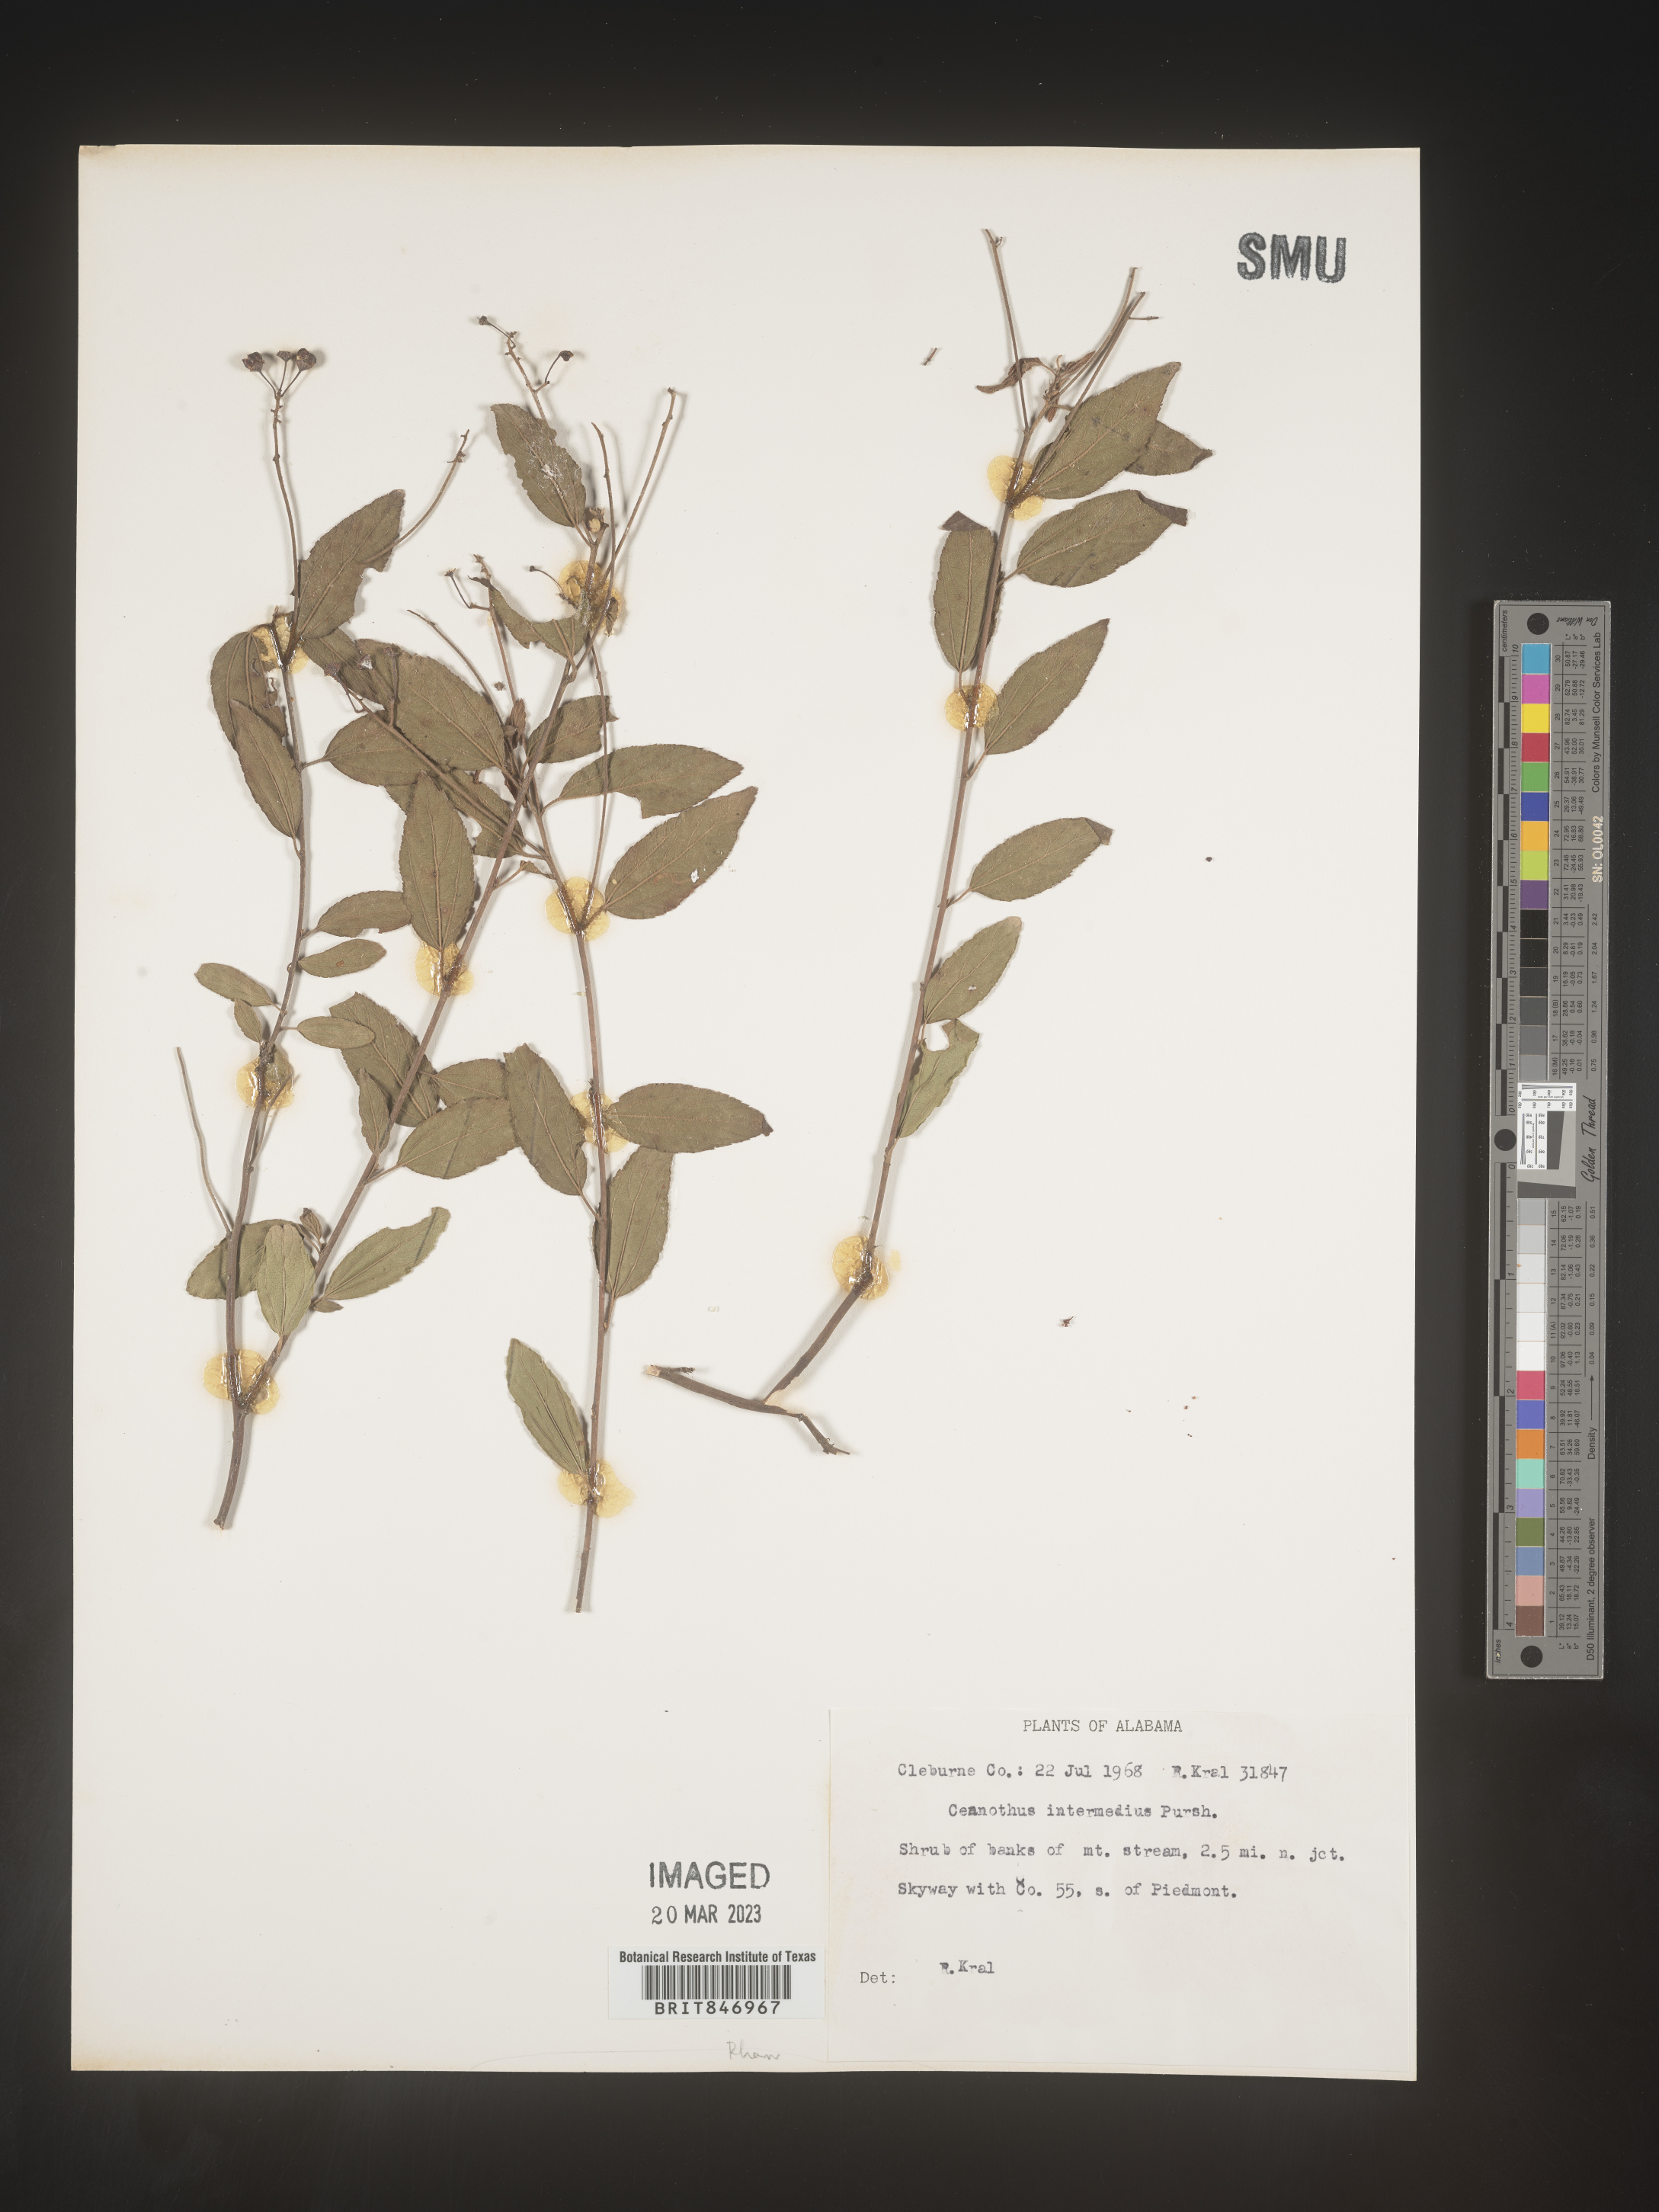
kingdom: Plantae
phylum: Tracheophyta
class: Magnoliopsida
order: Rosales
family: Rhamnaceae
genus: Ceanothus
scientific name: Ceanothus americanus
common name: Redroot
